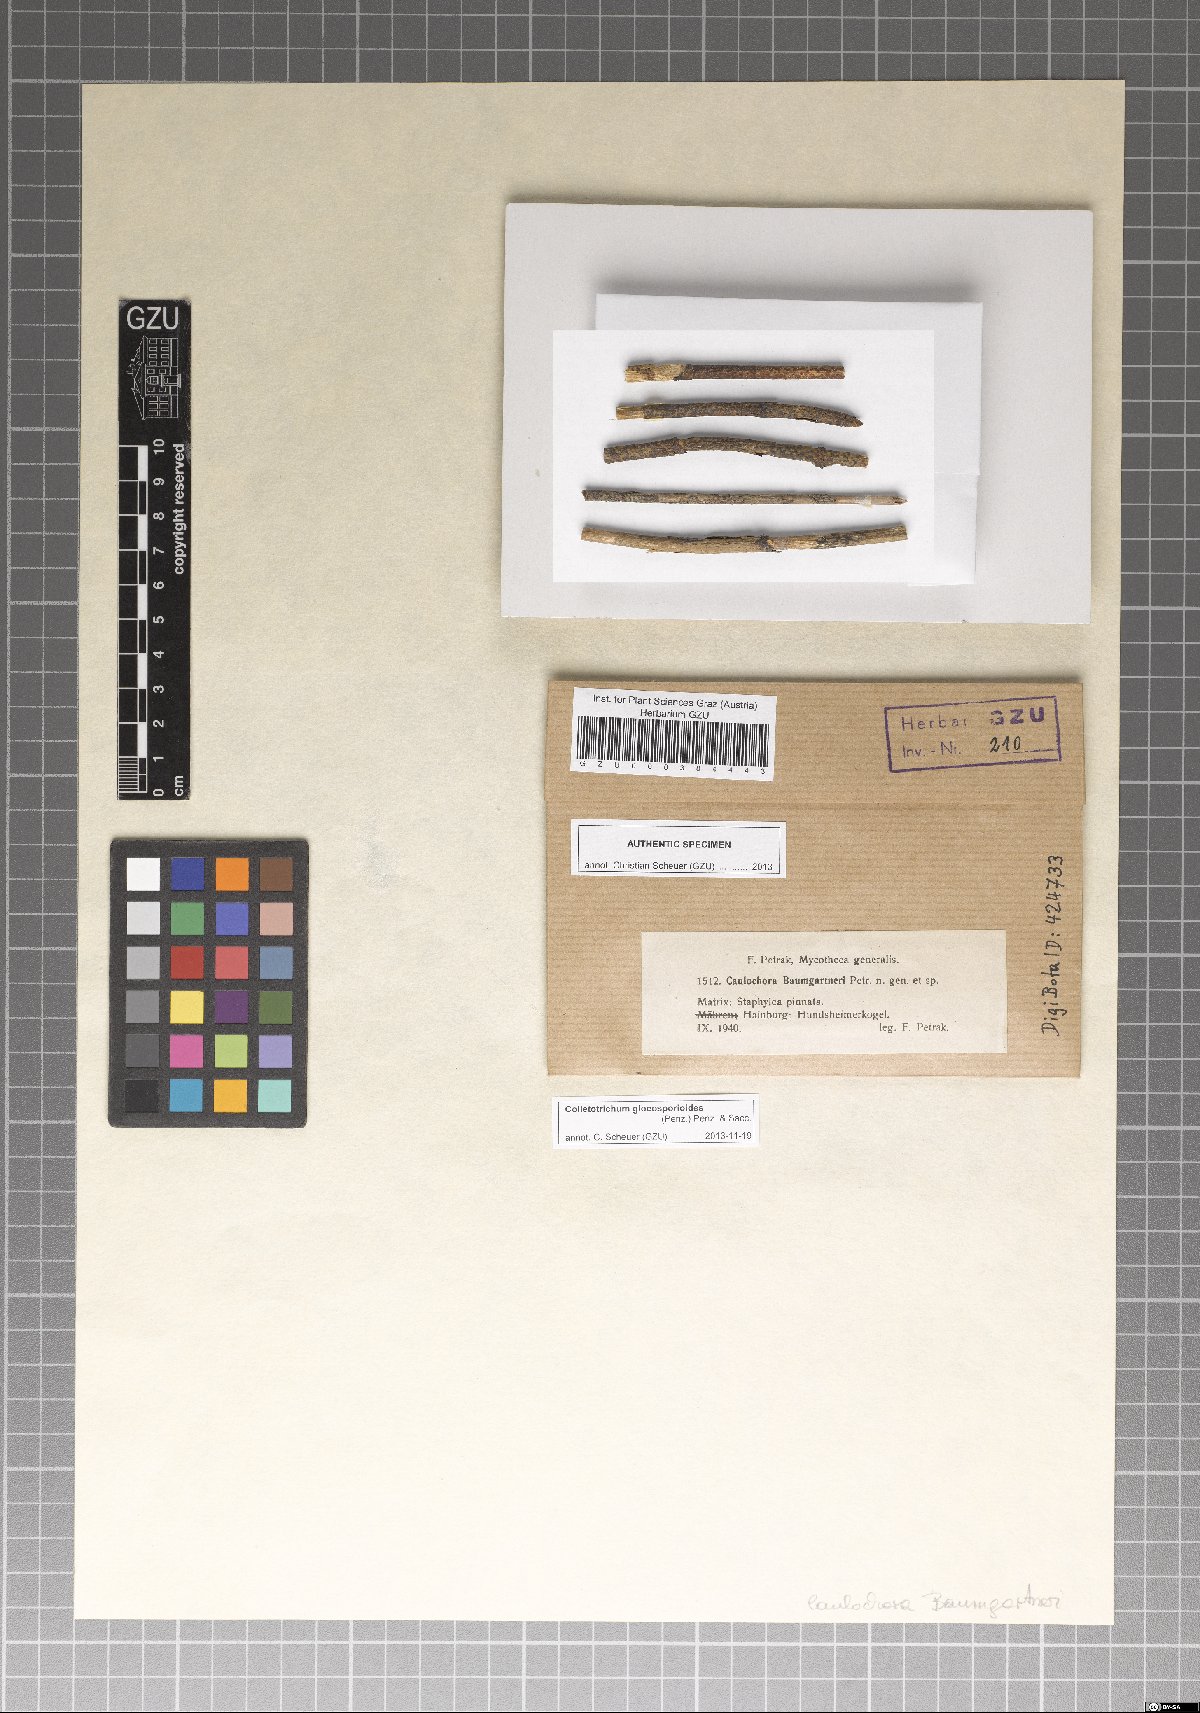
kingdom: Fungi
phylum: Ascomycota
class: Sordariomycetes
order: Glomerellales
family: Glomerellaceae
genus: Colletotrichum
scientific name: Colletotrichum gloeosporioides
